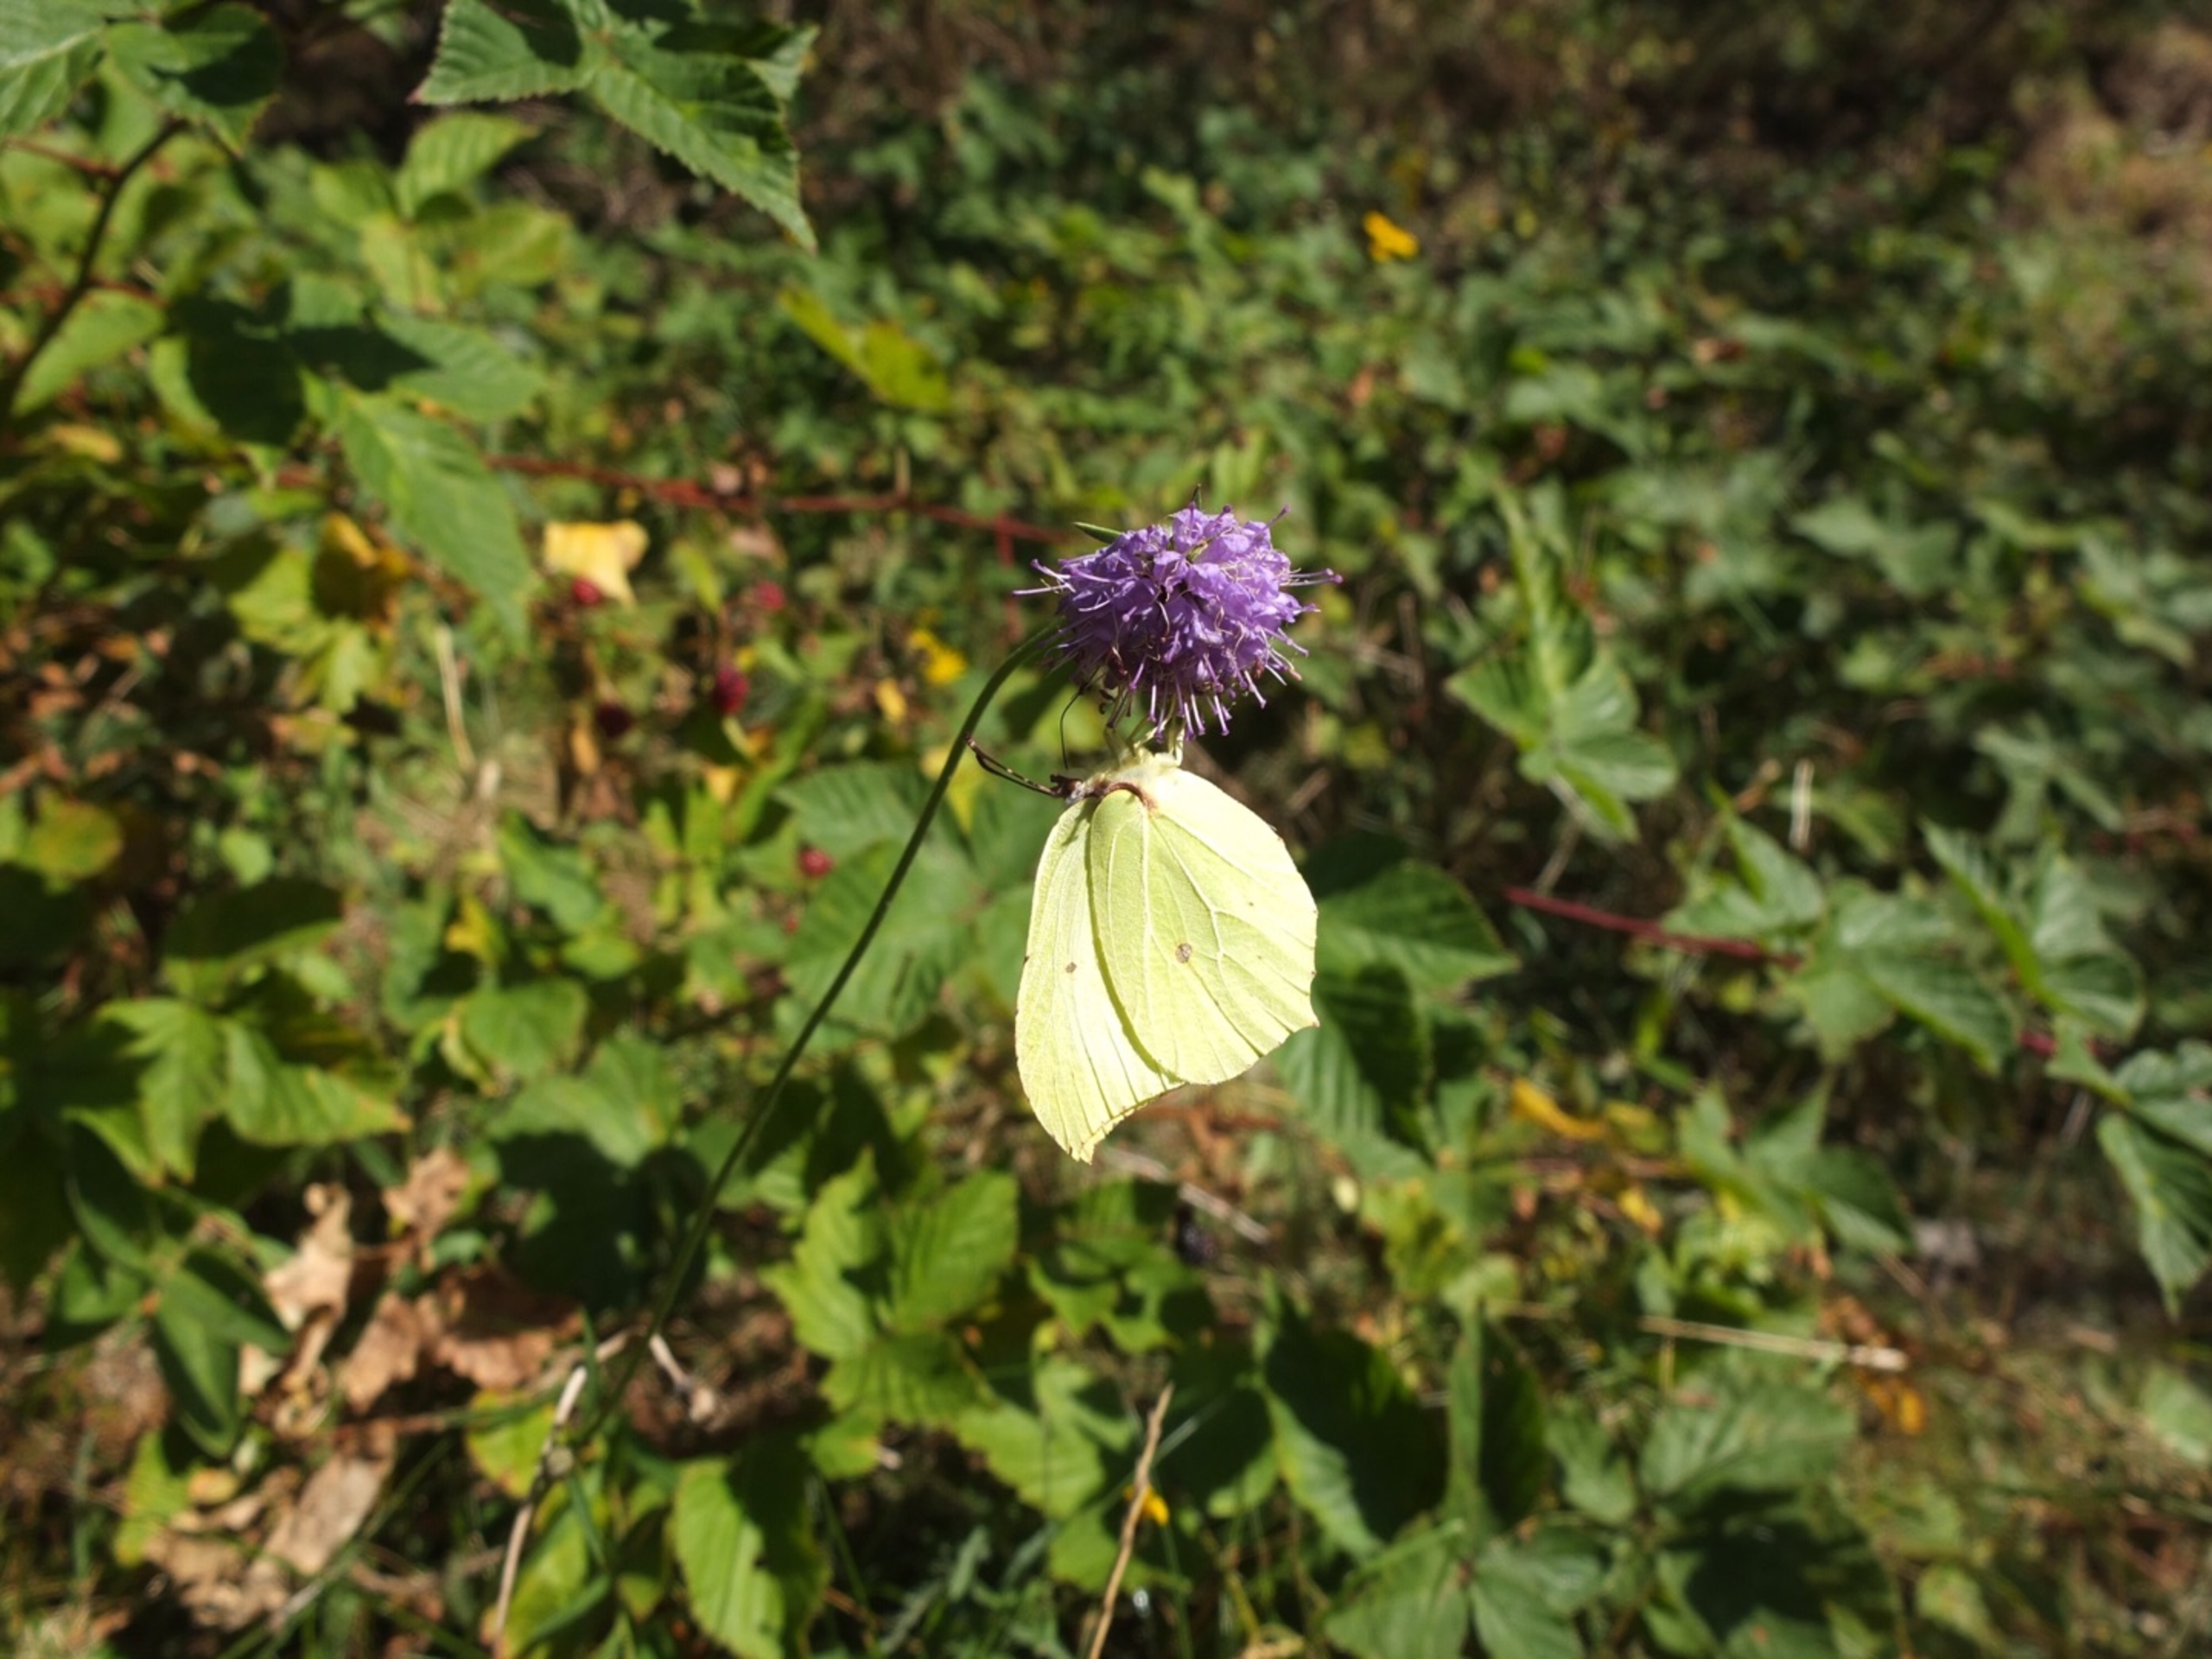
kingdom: Animalia
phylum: Arthropoda
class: Insecta
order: Lepidoptera
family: Pieridae
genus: Gonepteryx
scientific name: Gonepteryx rhamni
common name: Citronsommerfugl
